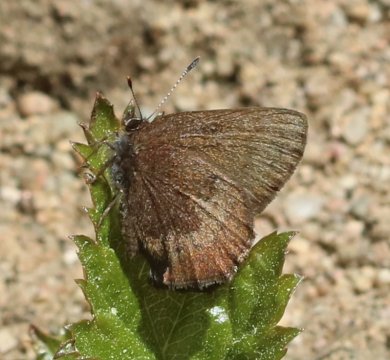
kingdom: Animalia
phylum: Arthropoda
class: Insecta
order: Lepidoptera
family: Lycaenidae
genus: Incisalia
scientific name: Incisalia irioides
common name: Brown Elfin
